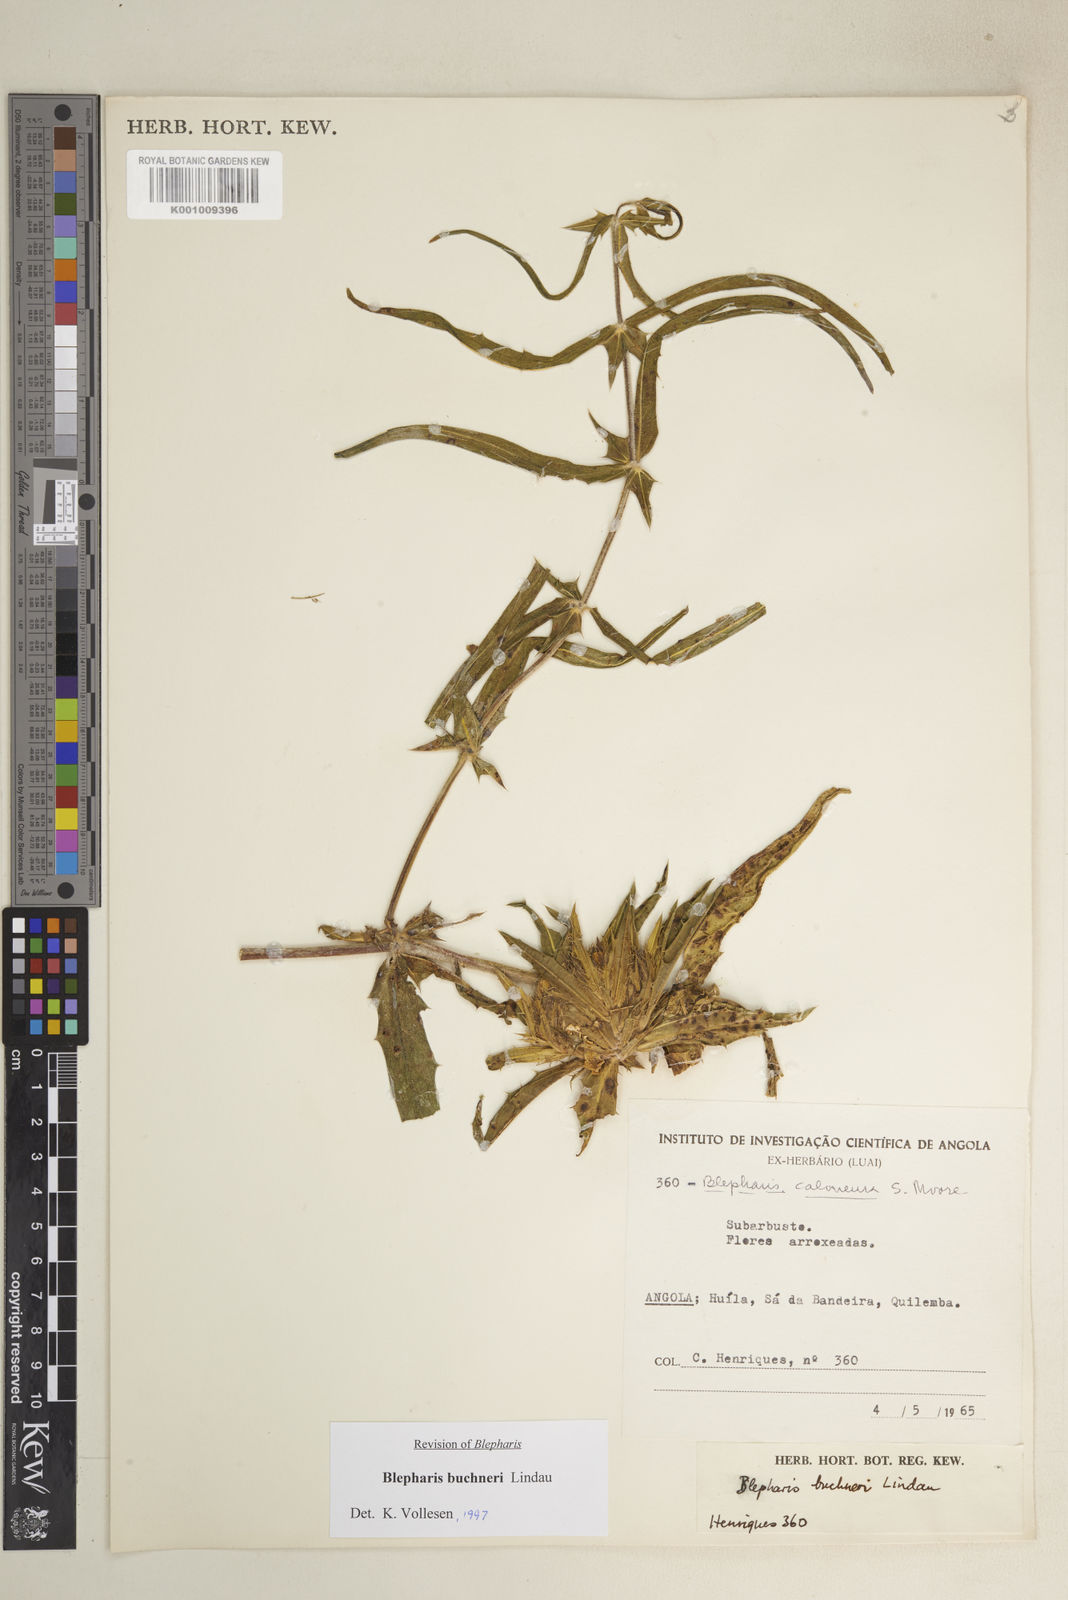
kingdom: Plantae
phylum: Tracheophyta
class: Magnoliopsida
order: Lamiales
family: Acanthaceae
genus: Blepharis
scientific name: Blepharis buchneri
